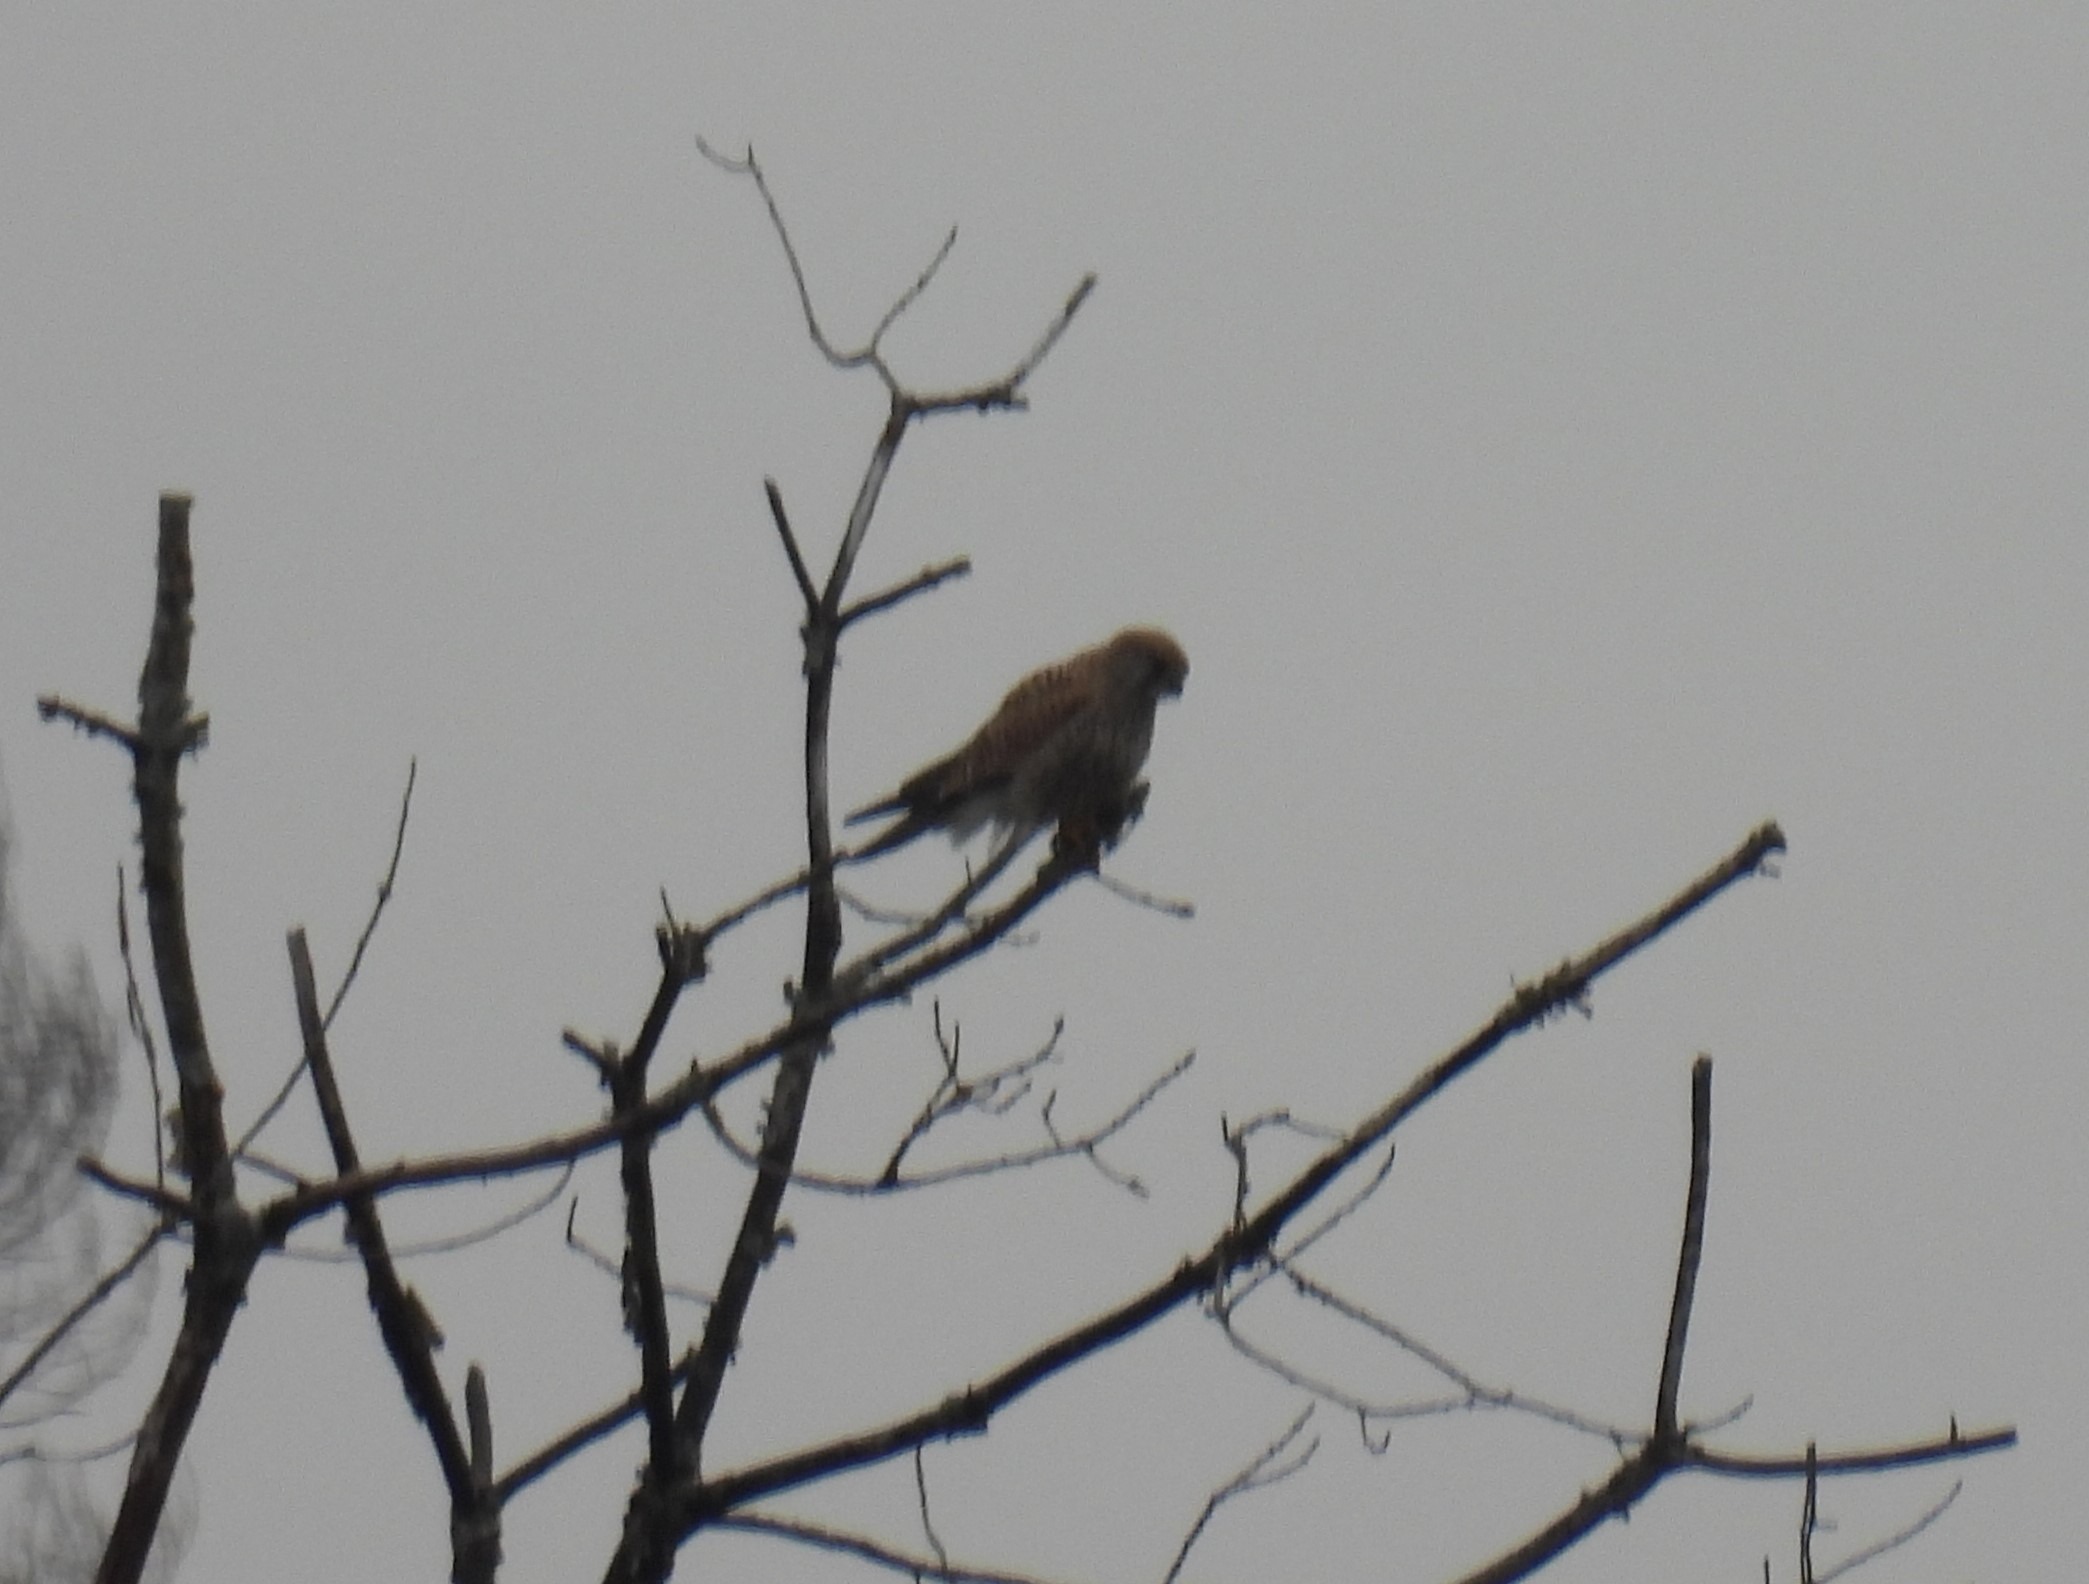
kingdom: Animalia
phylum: Chordata
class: Aves
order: Falconiformes
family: Falconidae
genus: Falco
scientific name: Falco tinnunculus
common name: Tårnfalk
